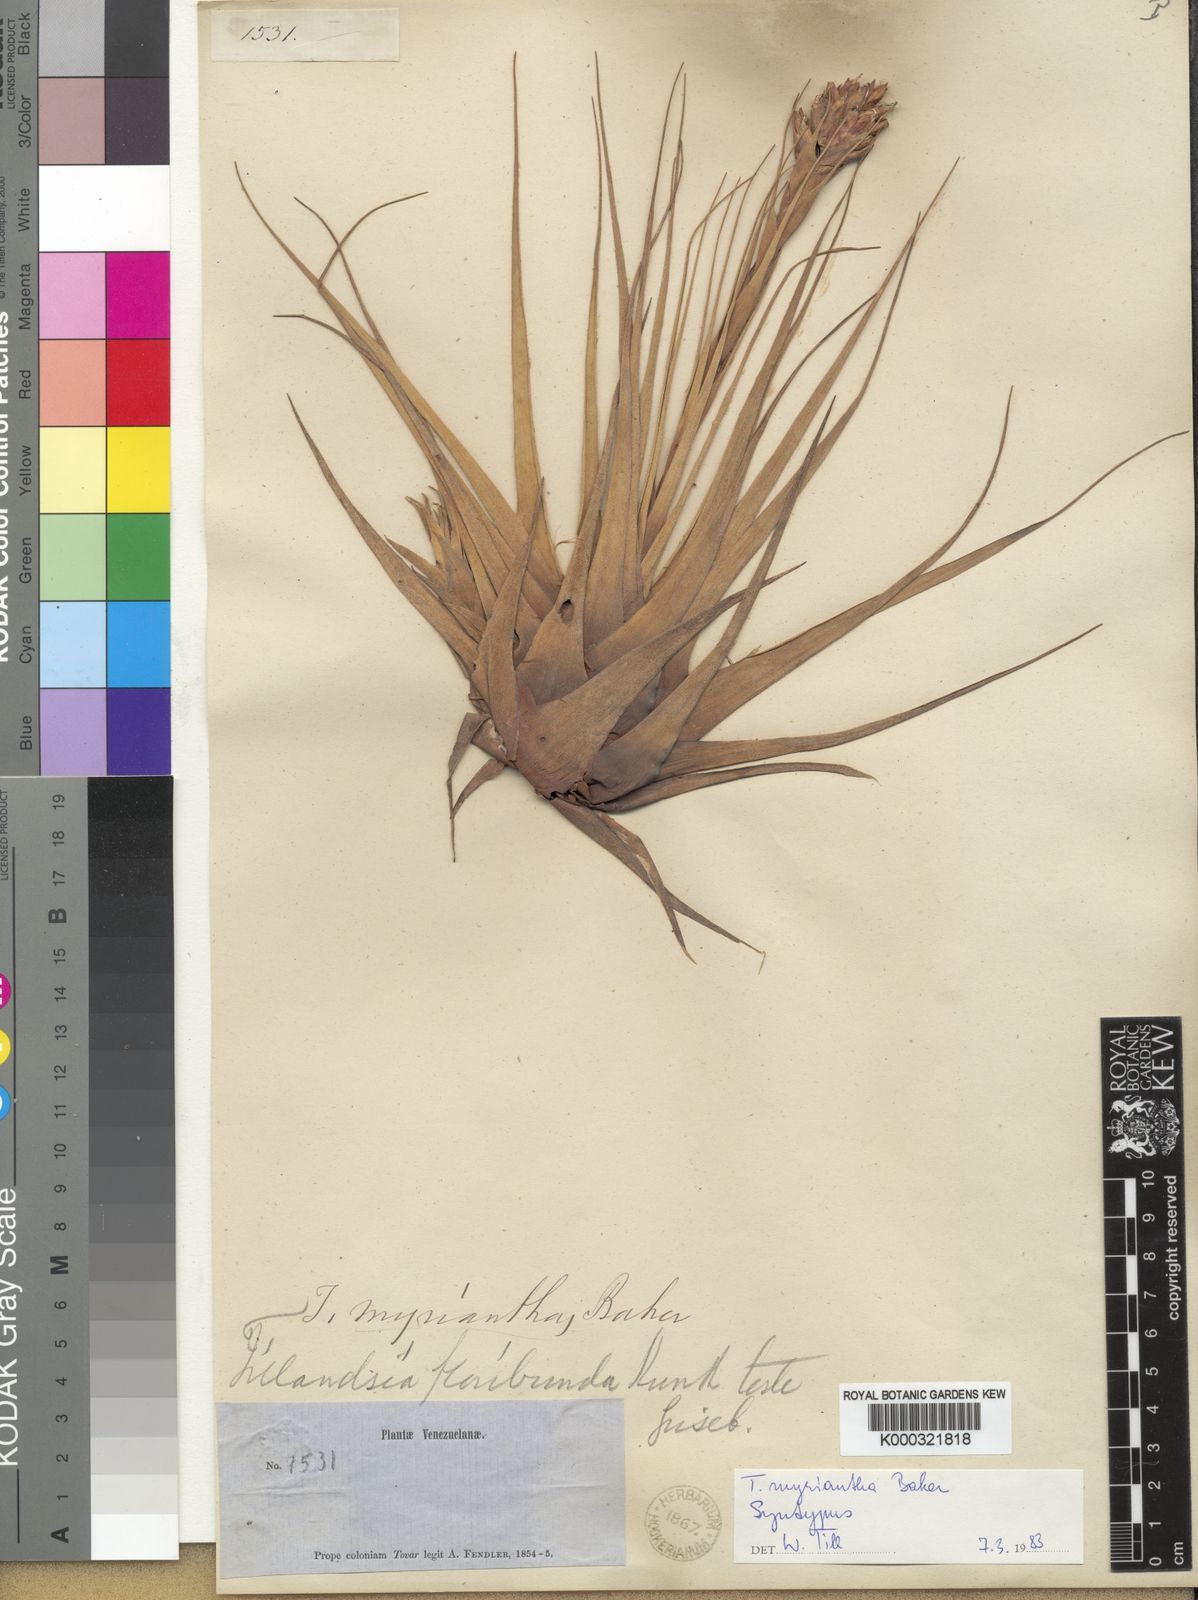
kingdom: Plantae
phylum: Tracheophyta
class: Liliopsida
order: Poales
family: Bromeliaceae
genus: Vriesea
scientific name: Vriesea myriantha
